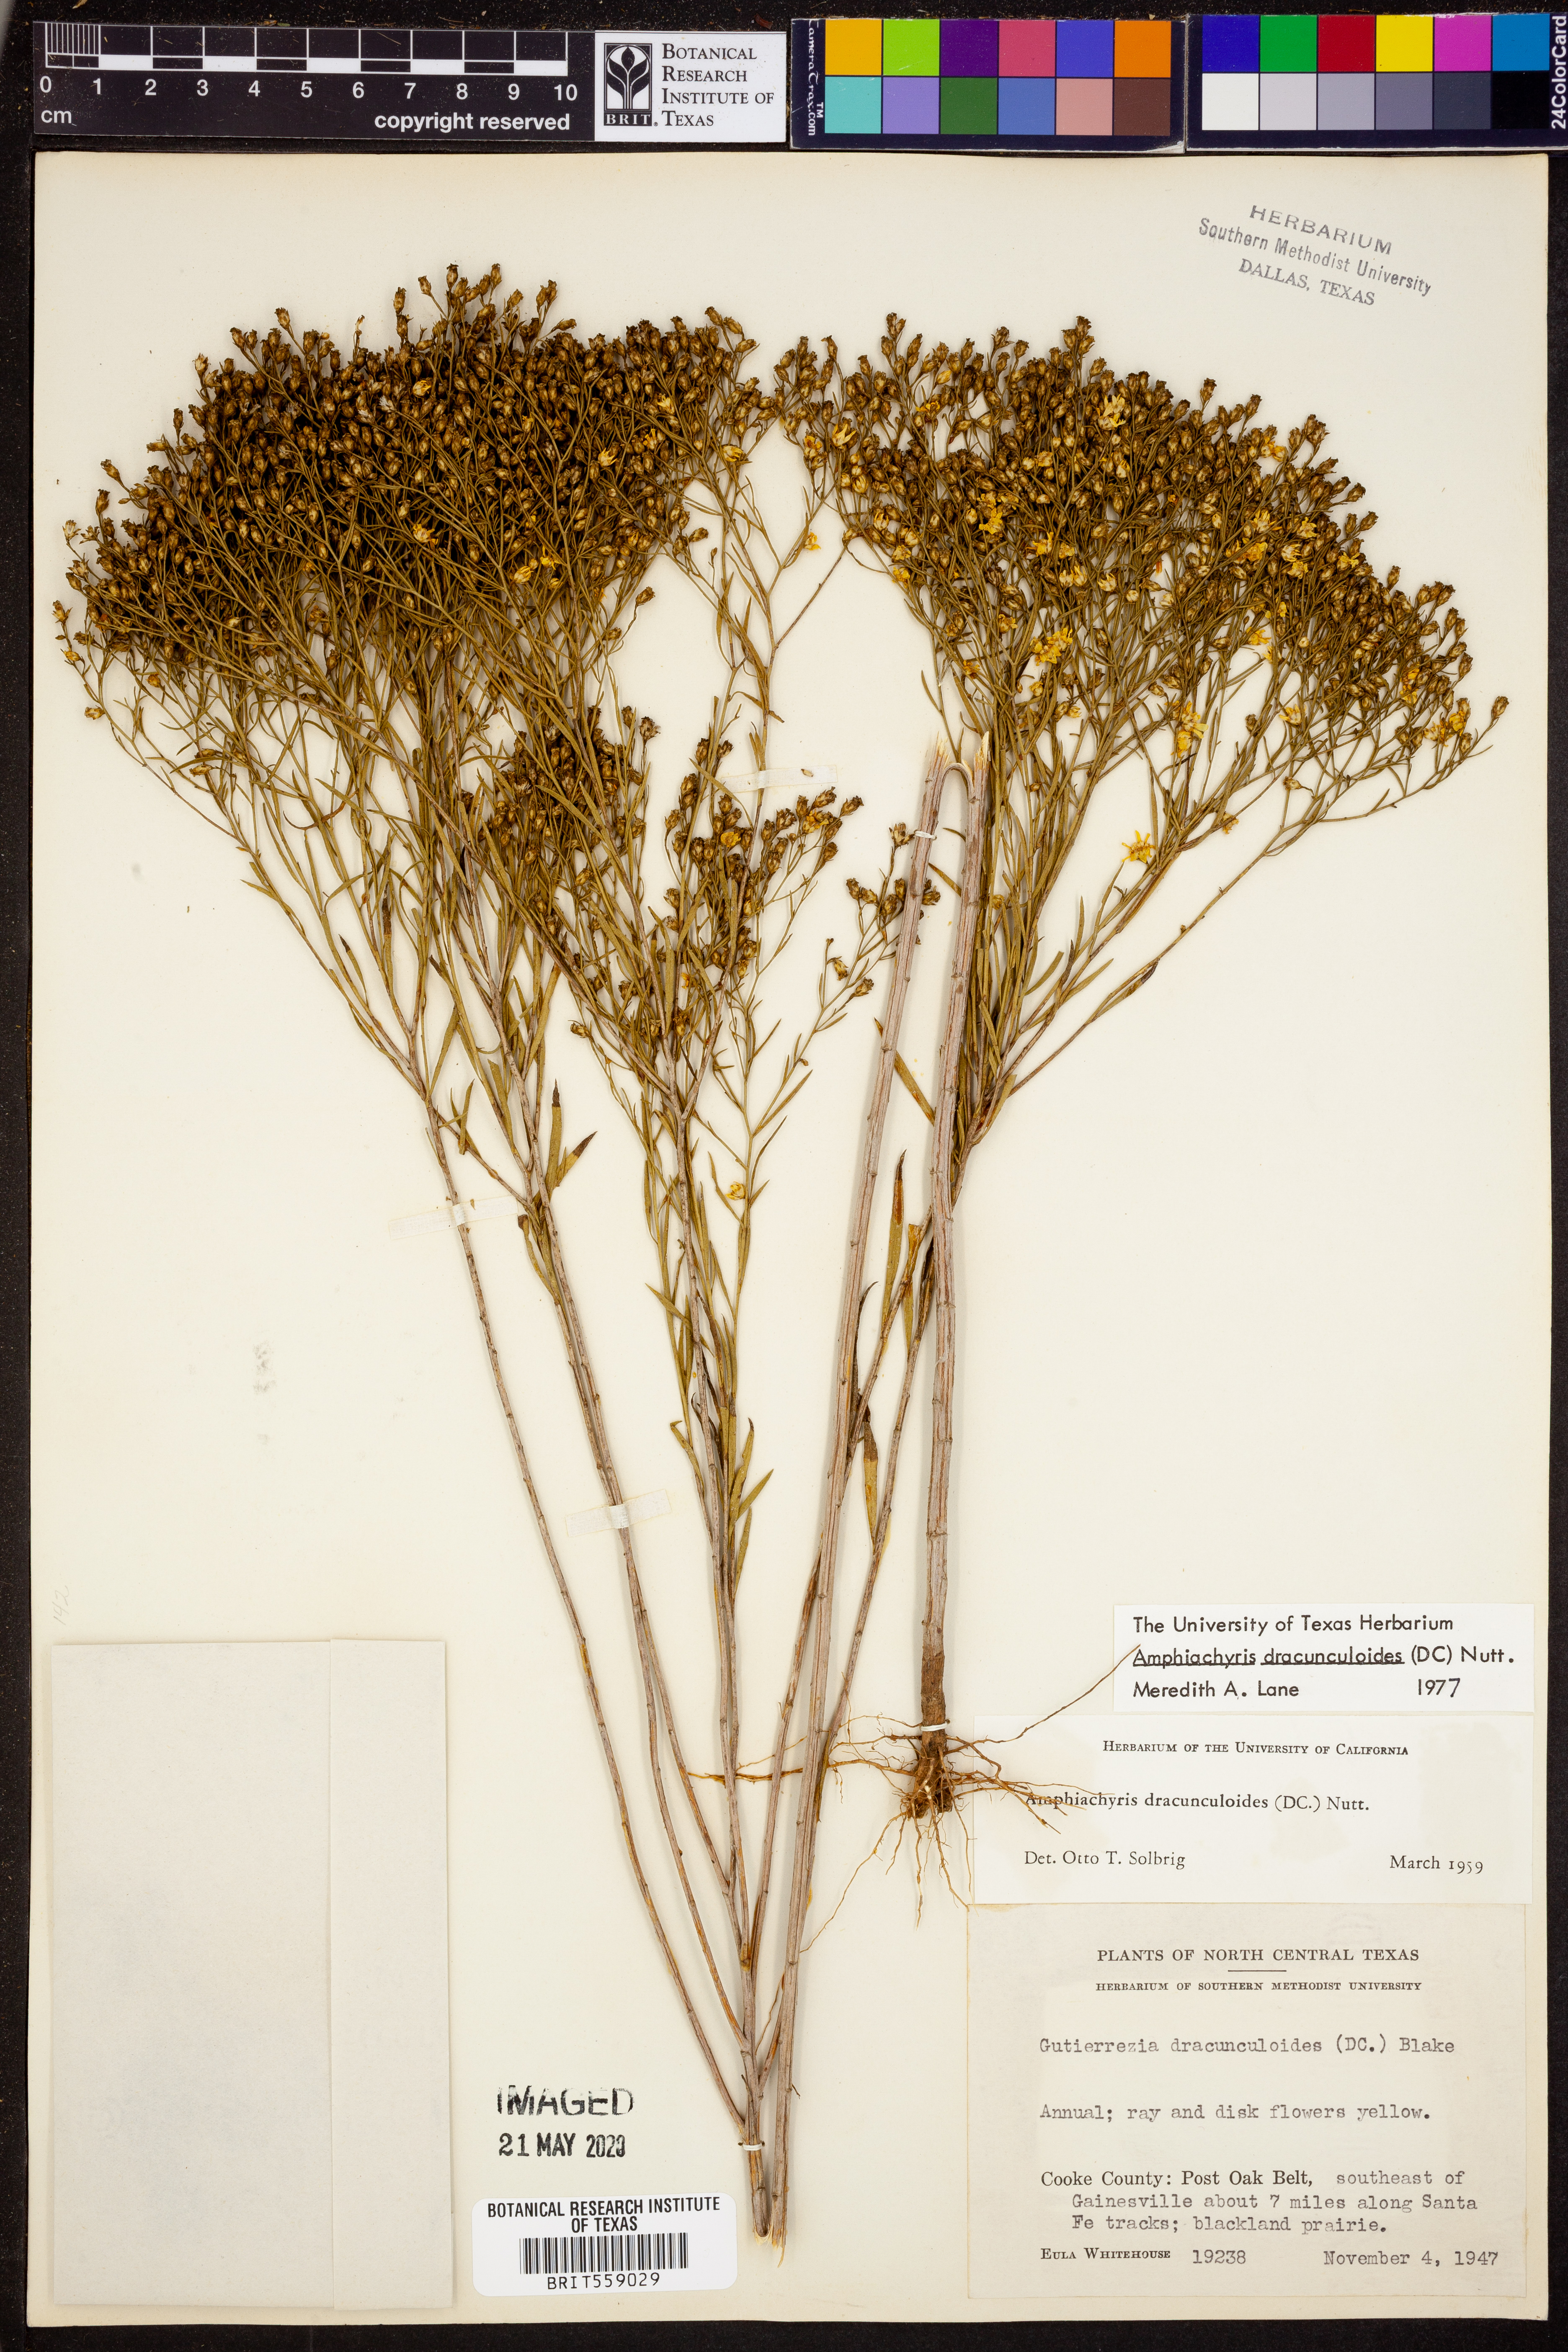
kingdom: Plantae
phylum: Tracheophyta
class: Magnoliopsida
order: Asterales
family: Asteraceae
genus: Amphiachyris
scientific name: Amphiachyris dracunculoides
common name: Broomweed
